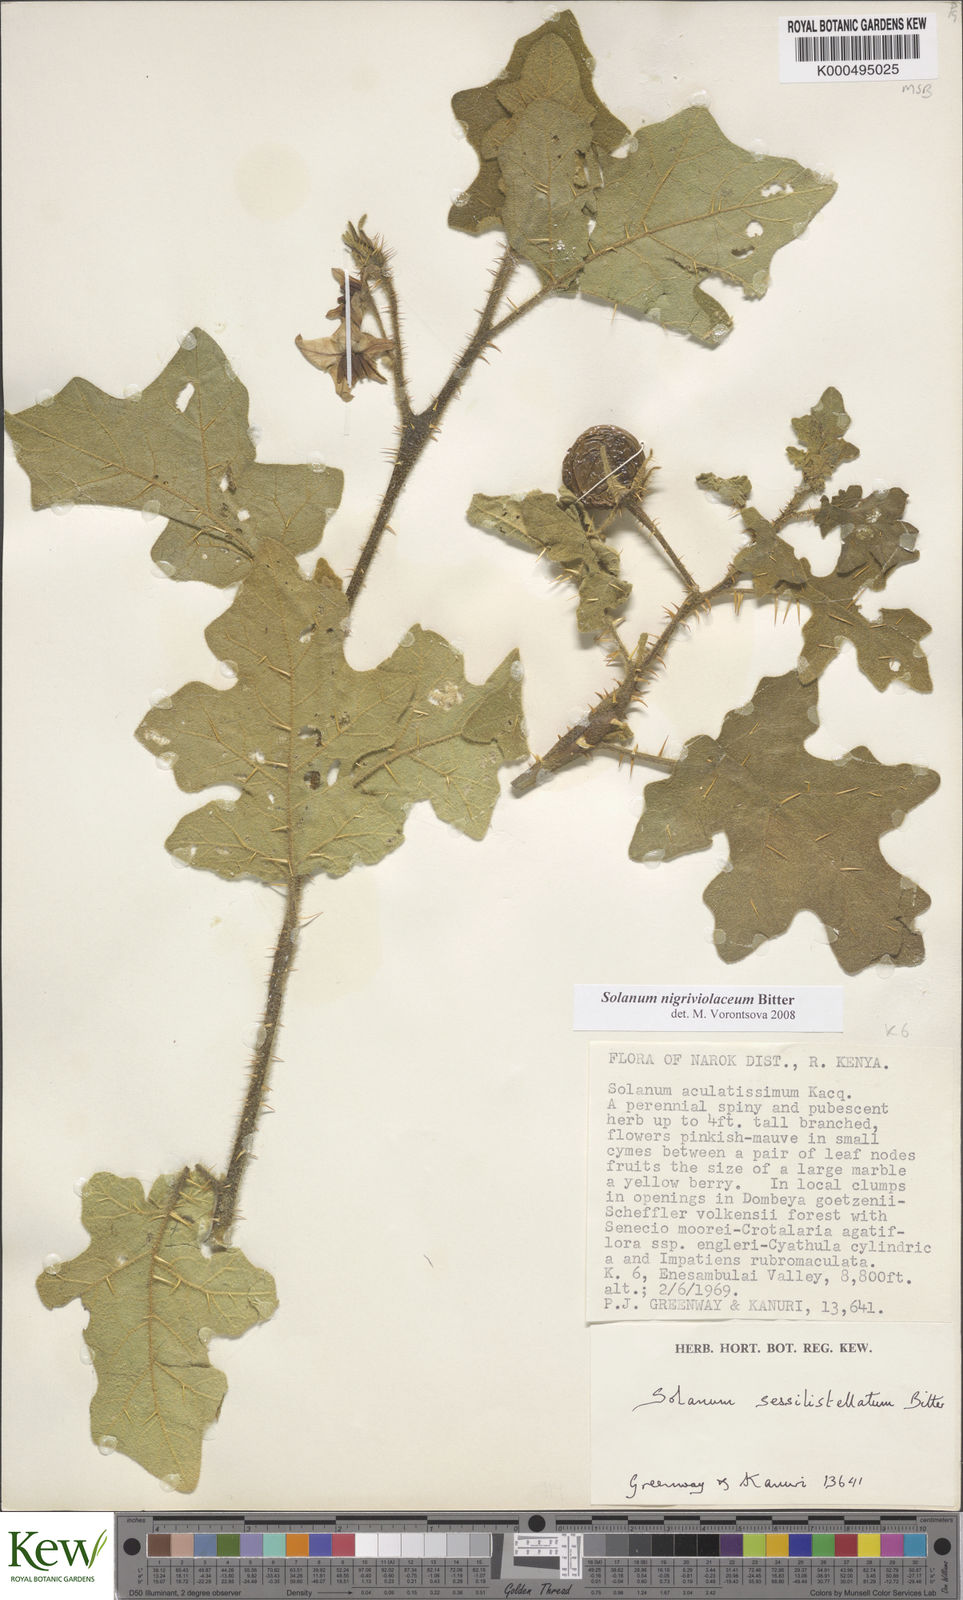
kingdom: Plantae
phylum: Tracheophyta
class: Magnoliopsida
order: Solanales
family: Solanaceae
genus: Solanum
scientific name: Solanum nigriviolaceum
